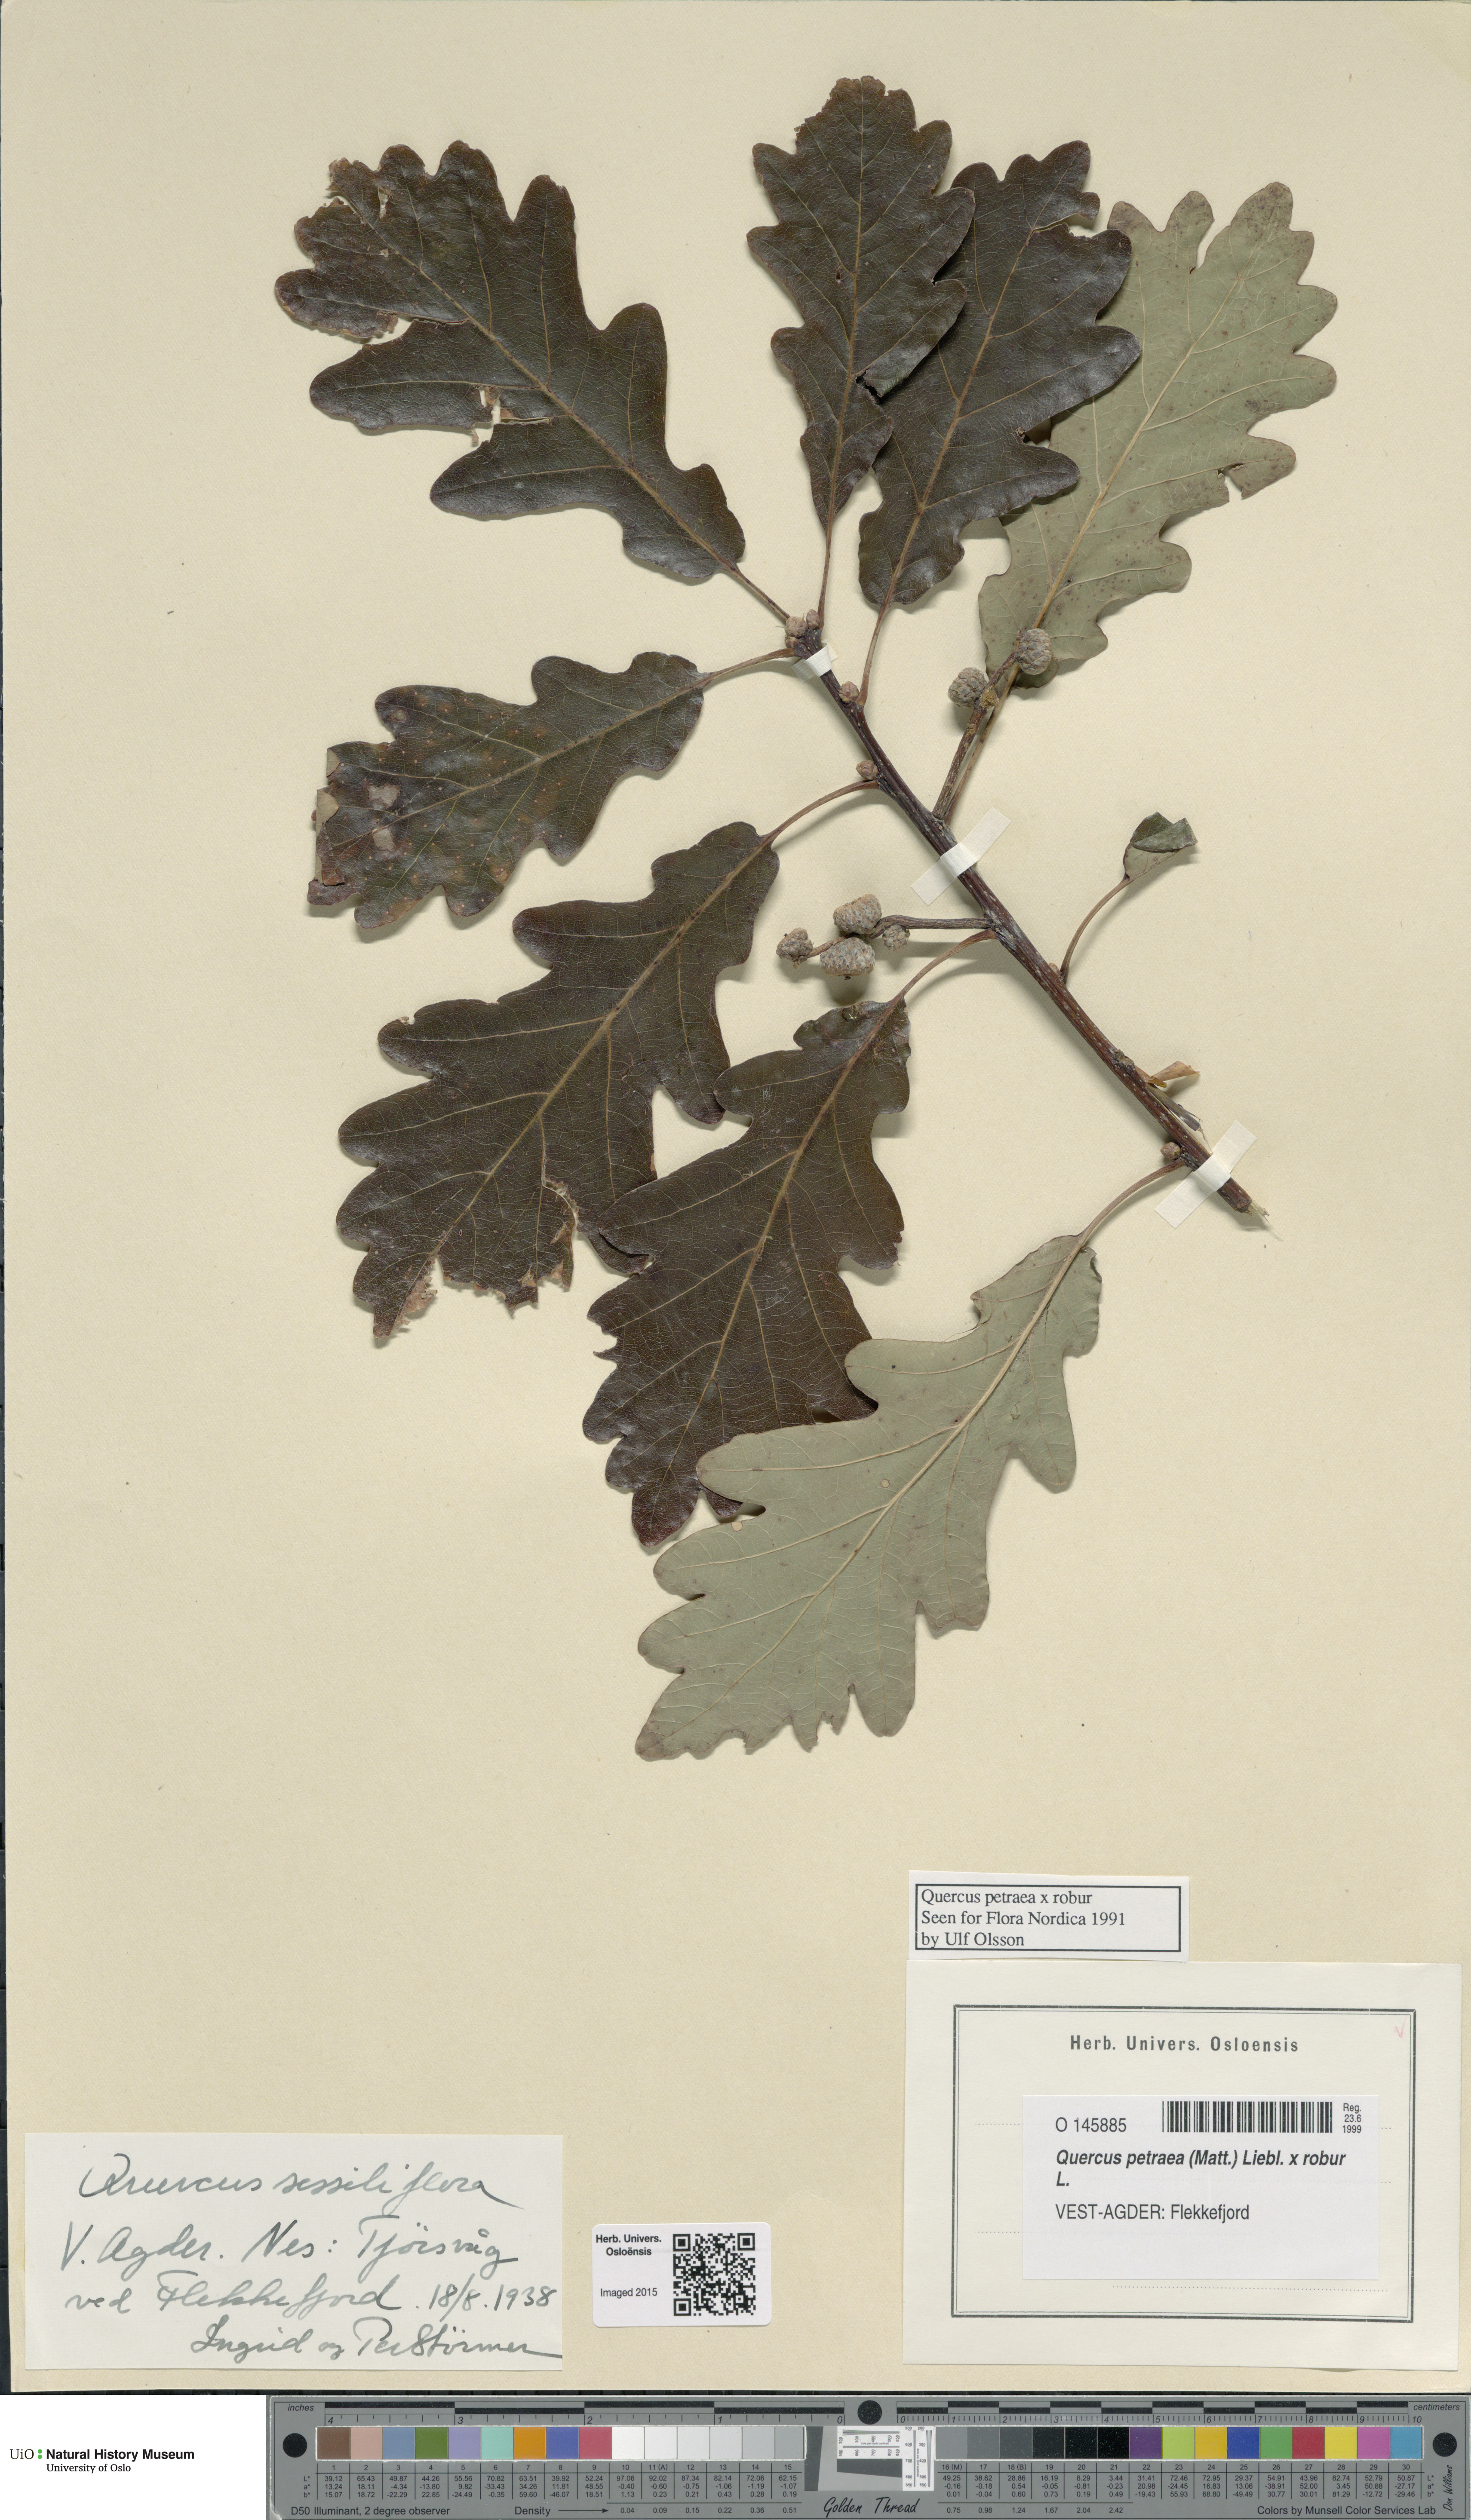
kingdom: Plantae
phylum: Tracheophyta
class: Magnoliopsida
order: Fagales
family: Fagaceae
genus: Quercus
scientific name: Quercus
